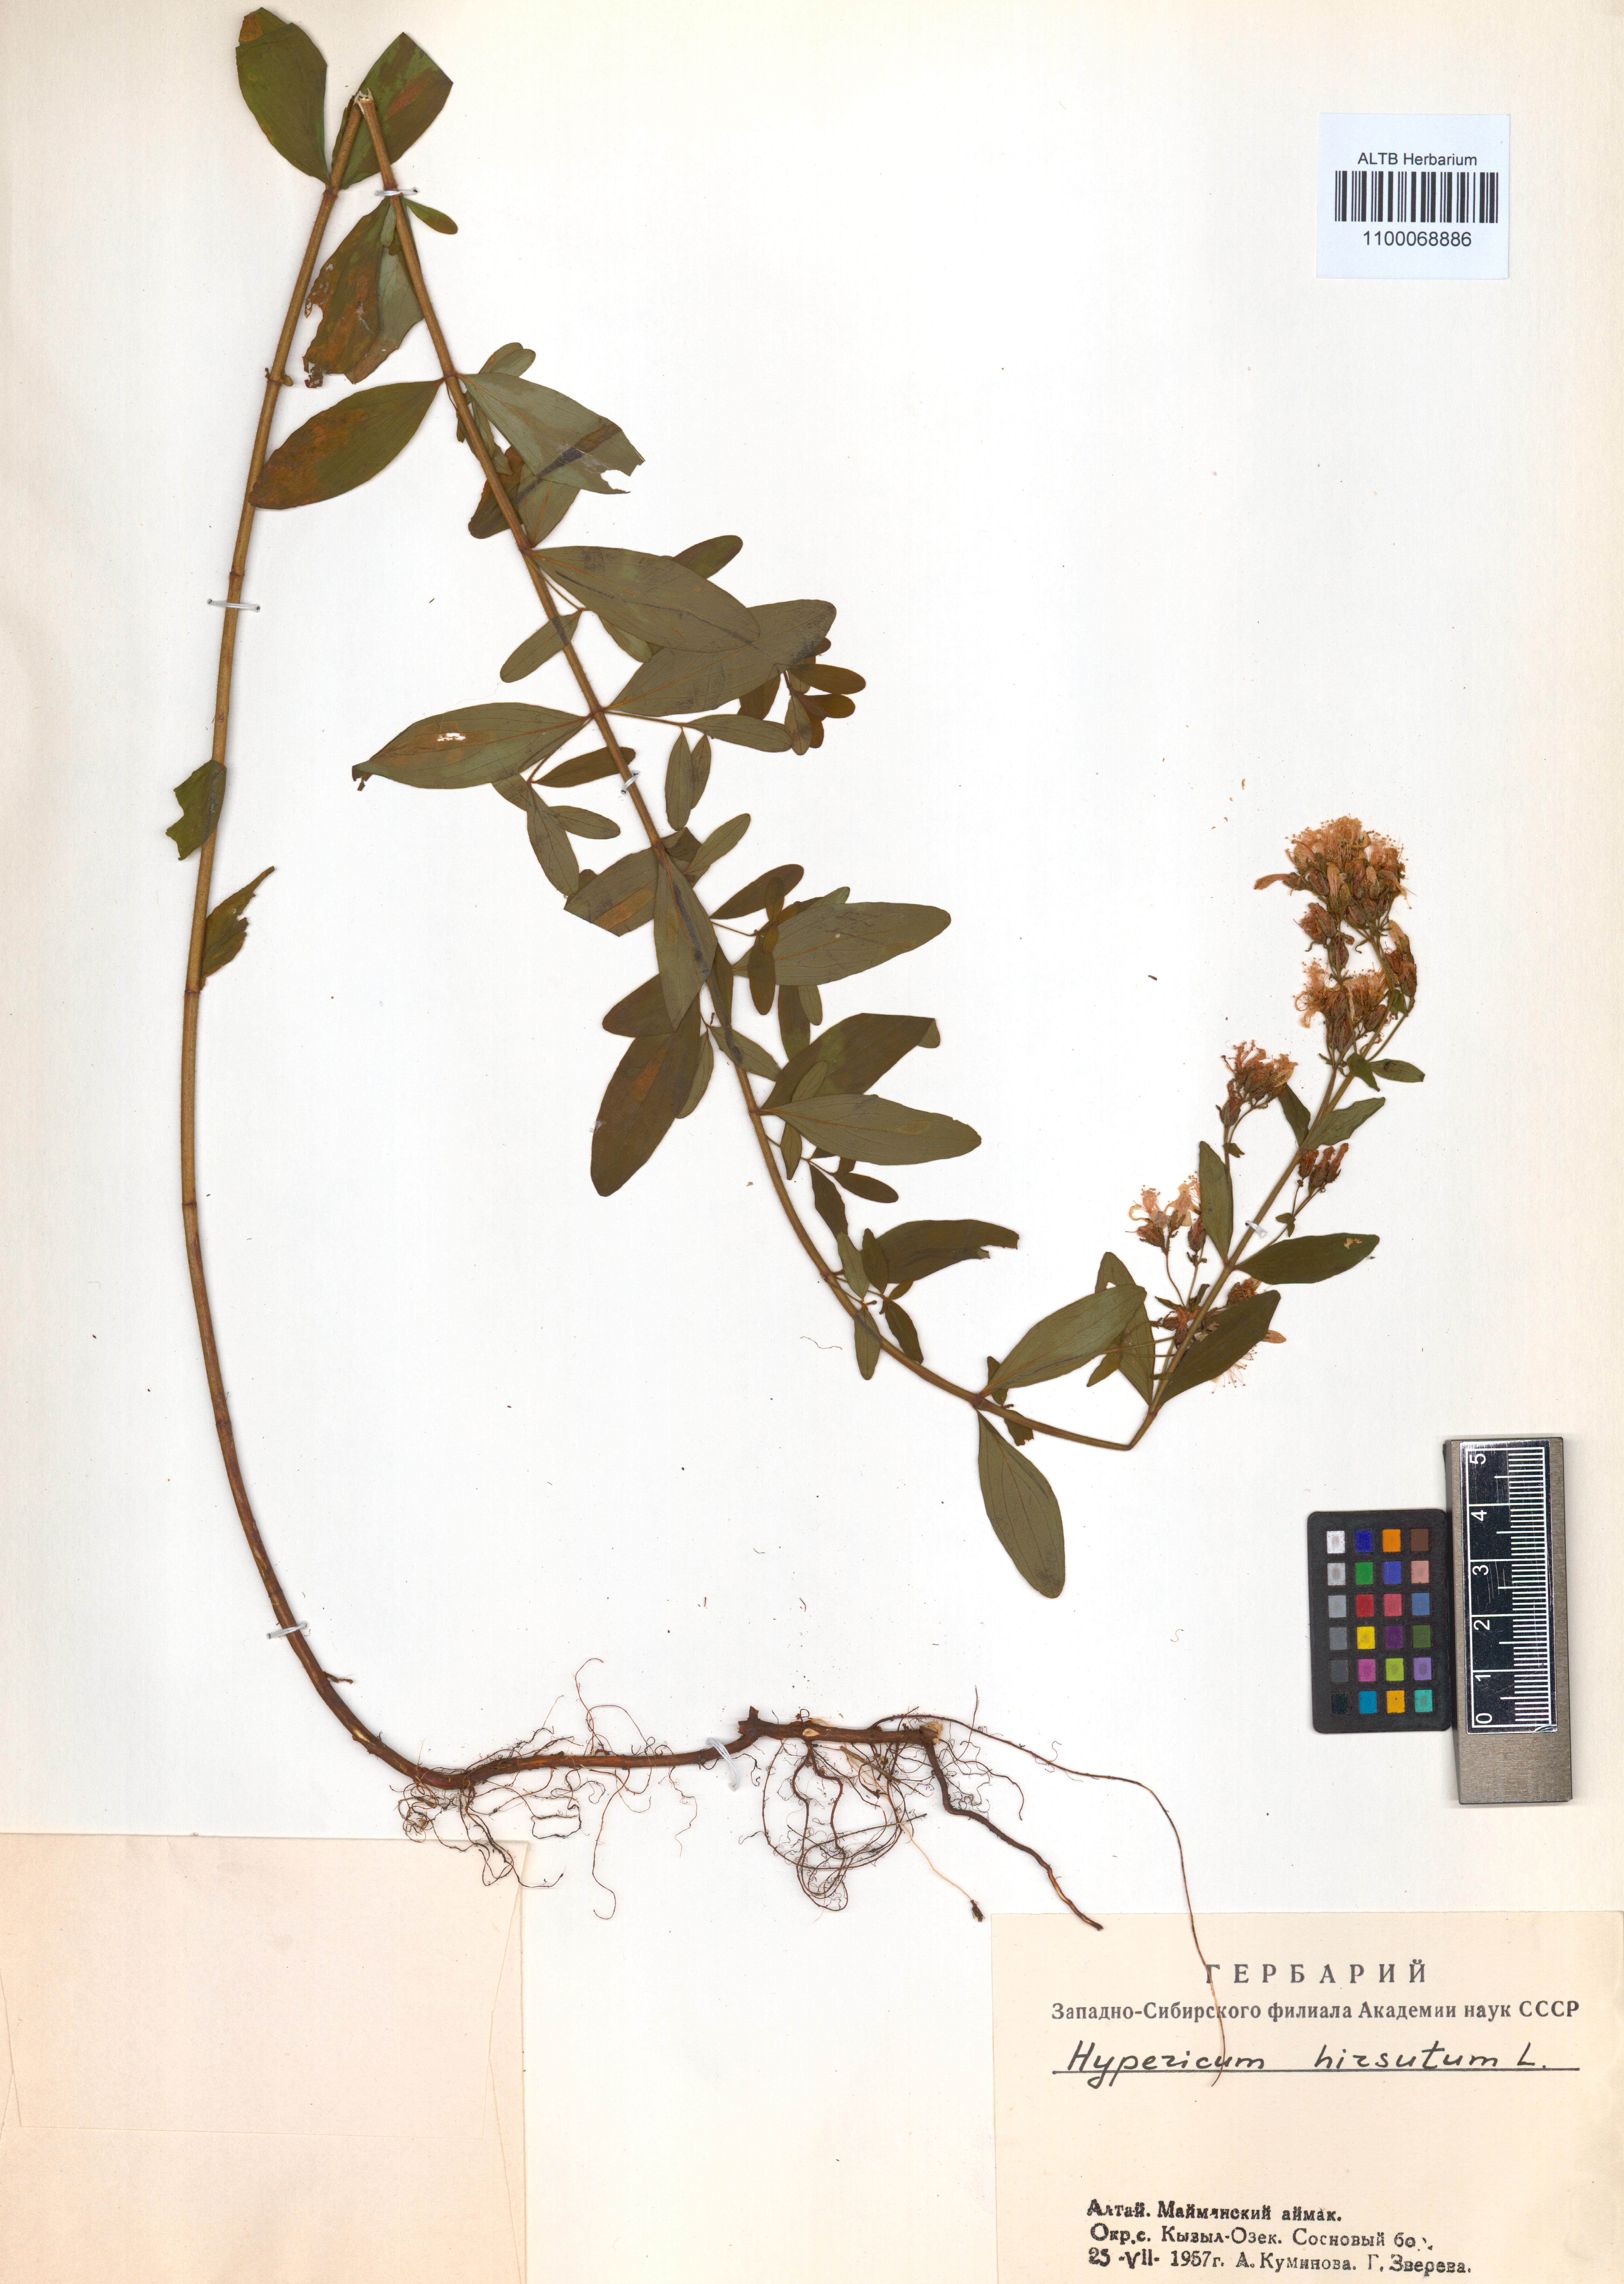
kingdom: Plantae
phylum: Tracheophyta
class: Magnoliopsida
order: Malpighiales
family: Hypericaceae
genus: Hypericum
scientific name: Hypericum hirsutum
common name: Hairy st. john's-wort
